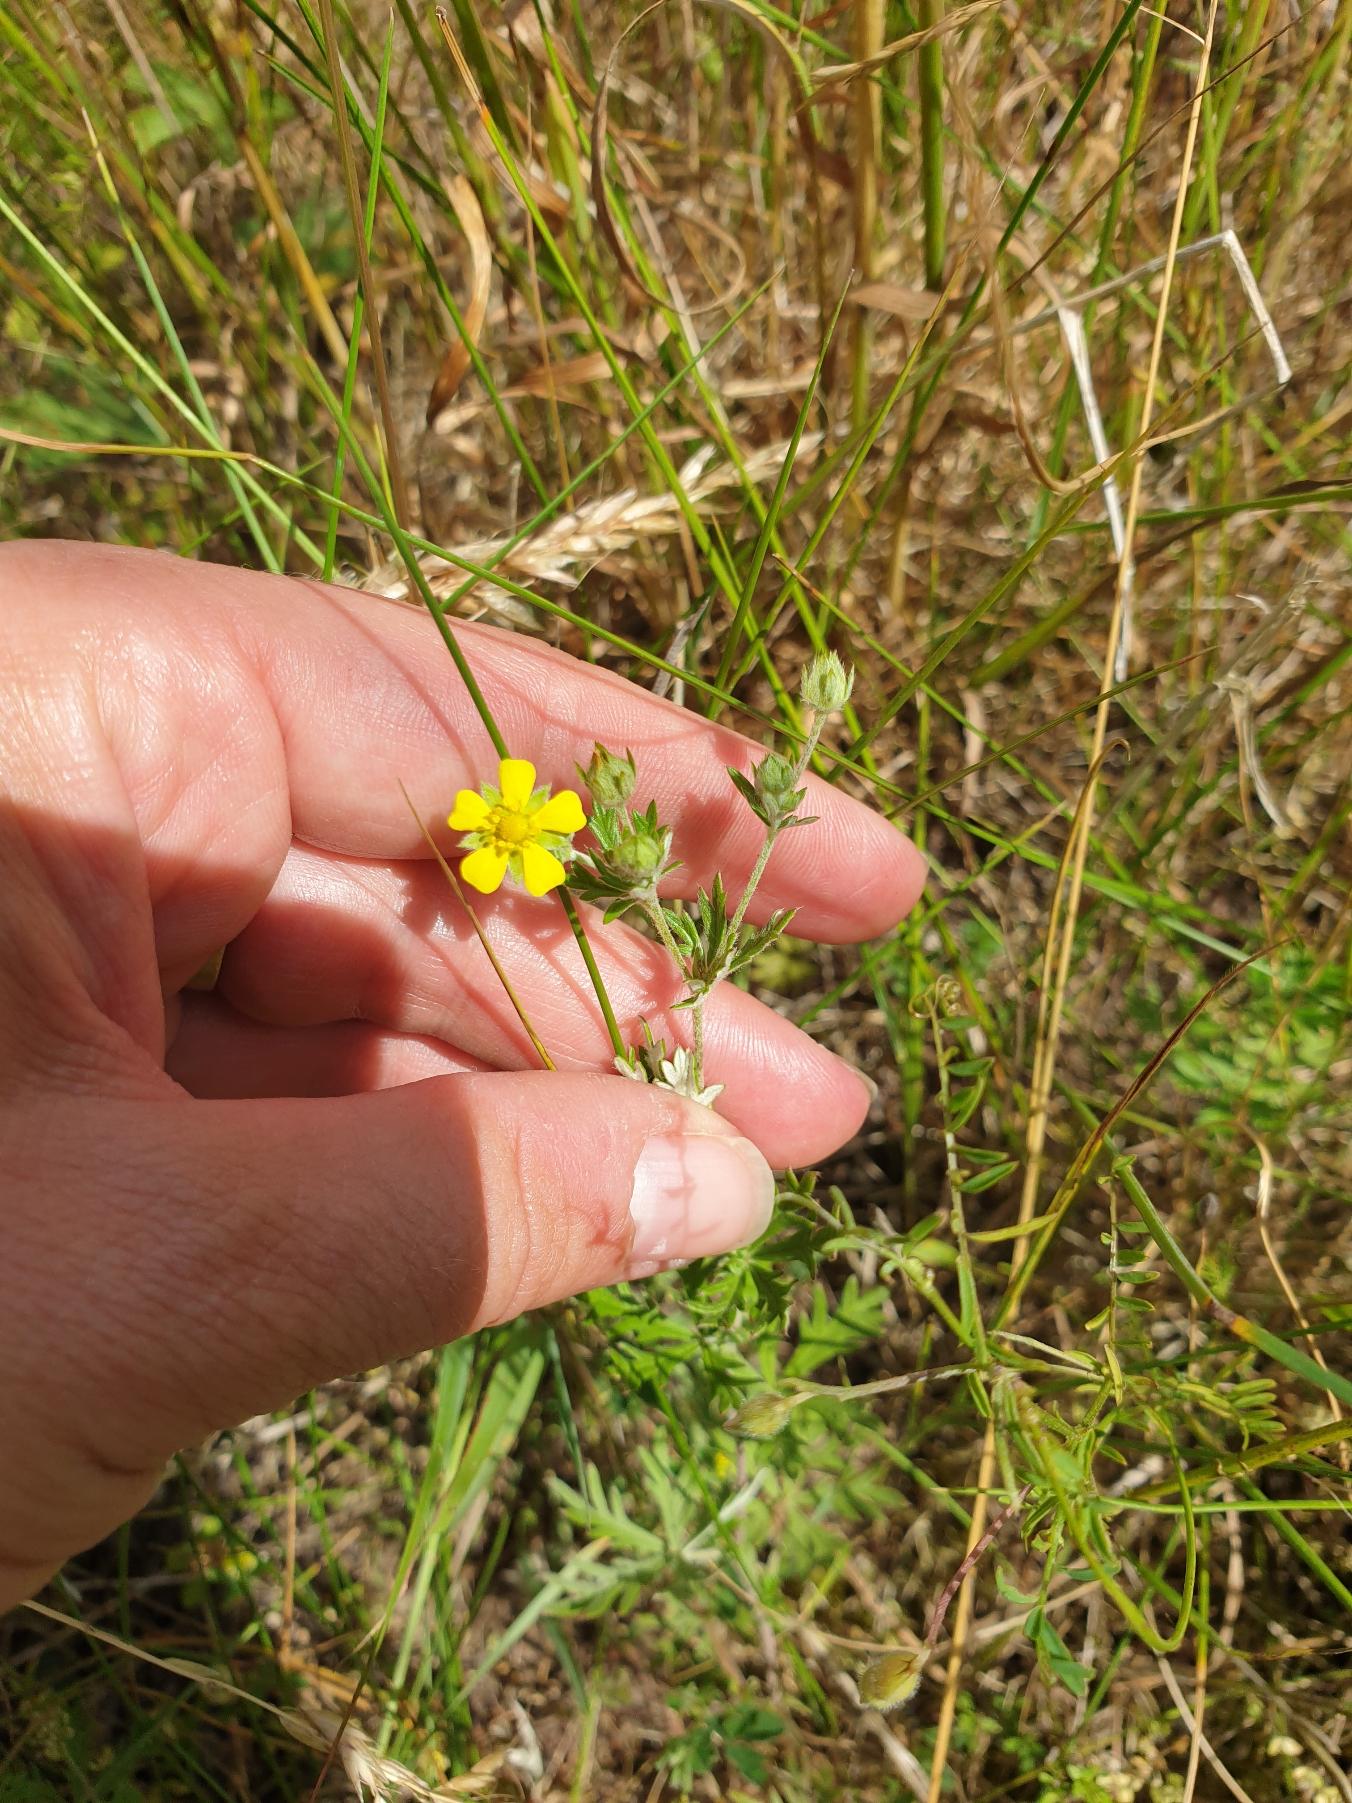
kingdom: Plantae
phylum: Tracheophyta
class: Magnoliopsida
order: Rosales
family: Rosaceae
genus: Potentilla
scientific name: Potentilla argentea
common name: Sølv-potentil
